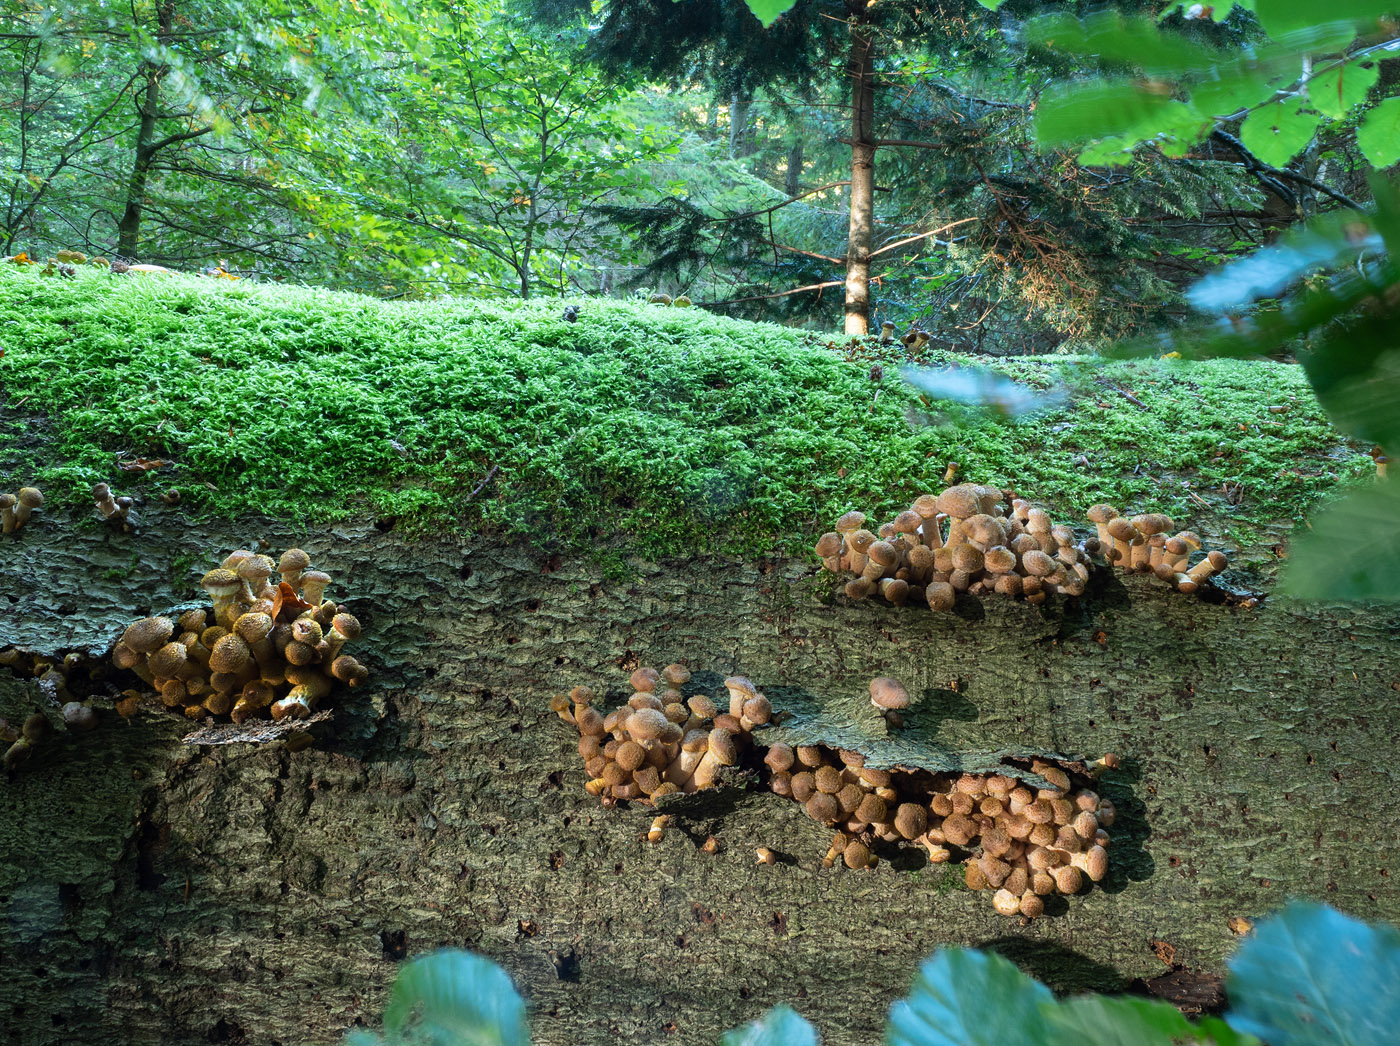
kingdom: Fungi
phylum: Basidiomycota
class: Agaricomycetes
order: Agaricales
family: Physalacriaceae
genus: Armillaria
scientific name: Armillaria lutea
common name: køllestokket honningsvamp
